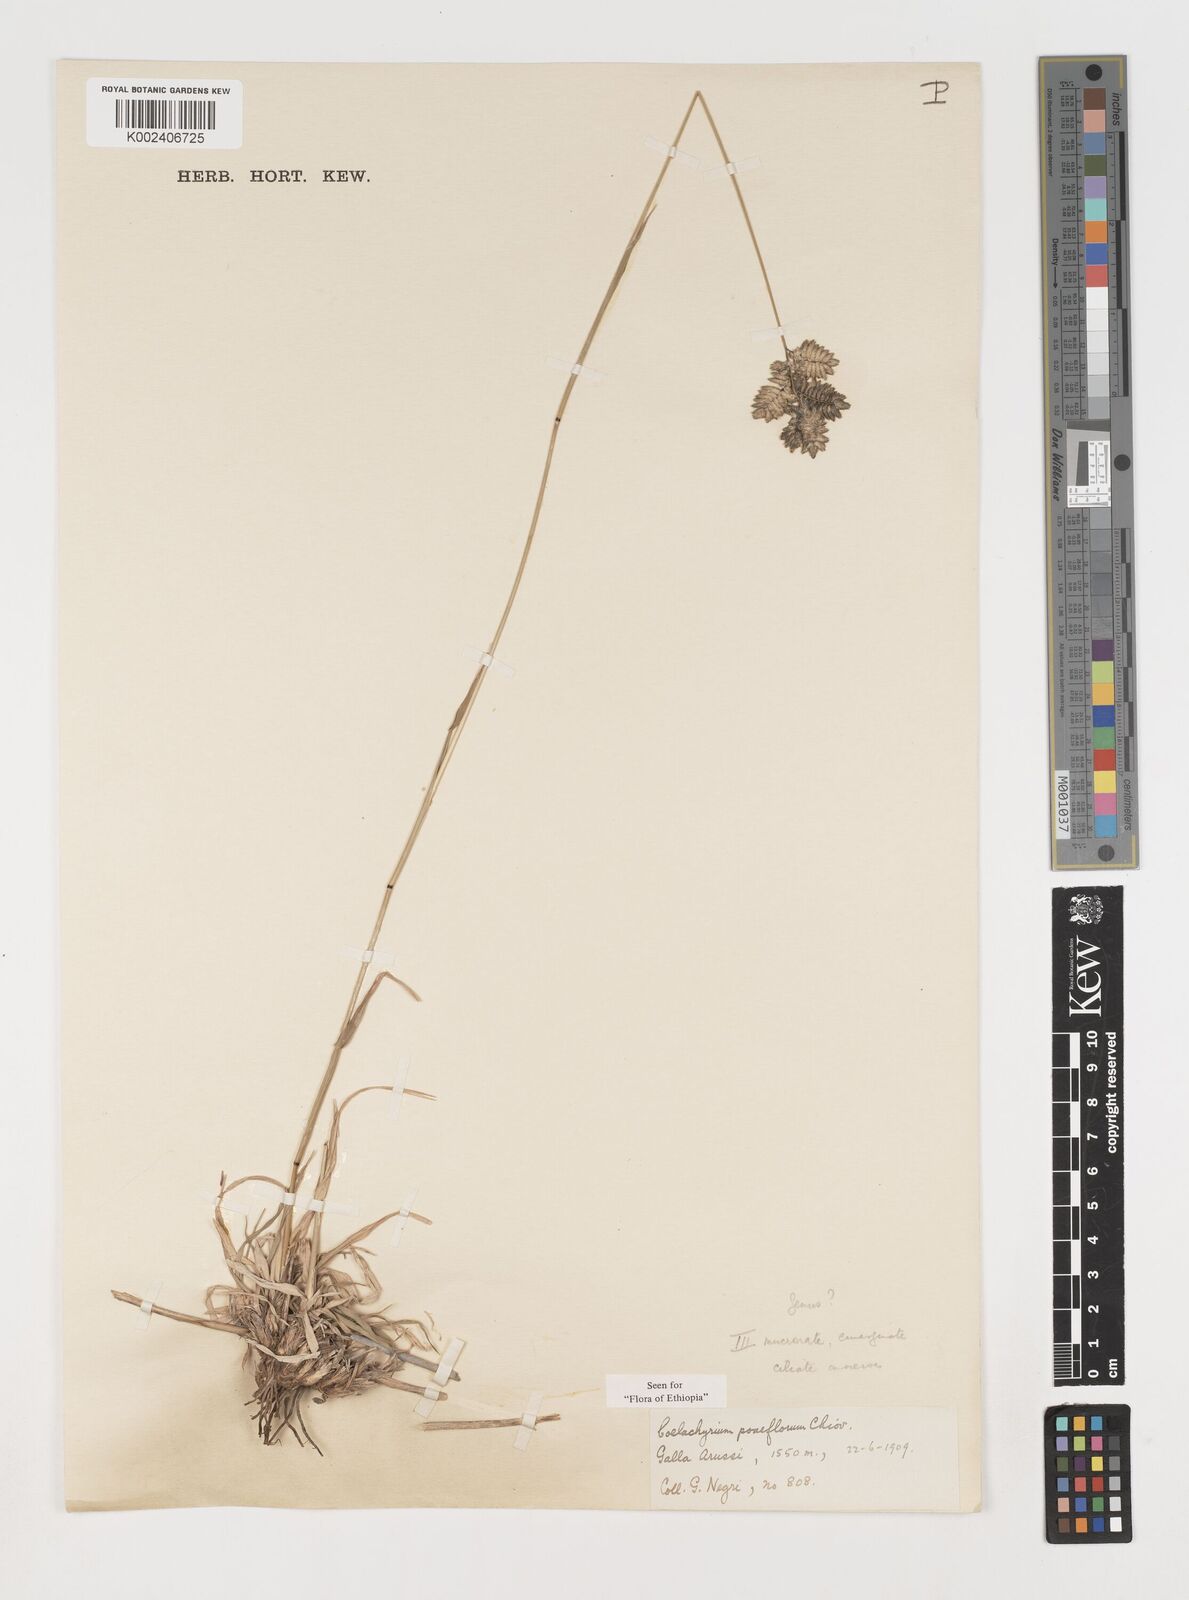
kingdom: Plantae
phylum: Tracheophyta
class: Liliopsida
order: Poales
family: Poaceae
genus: Coelachyrum
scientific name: Coelachyrum poiflorum
